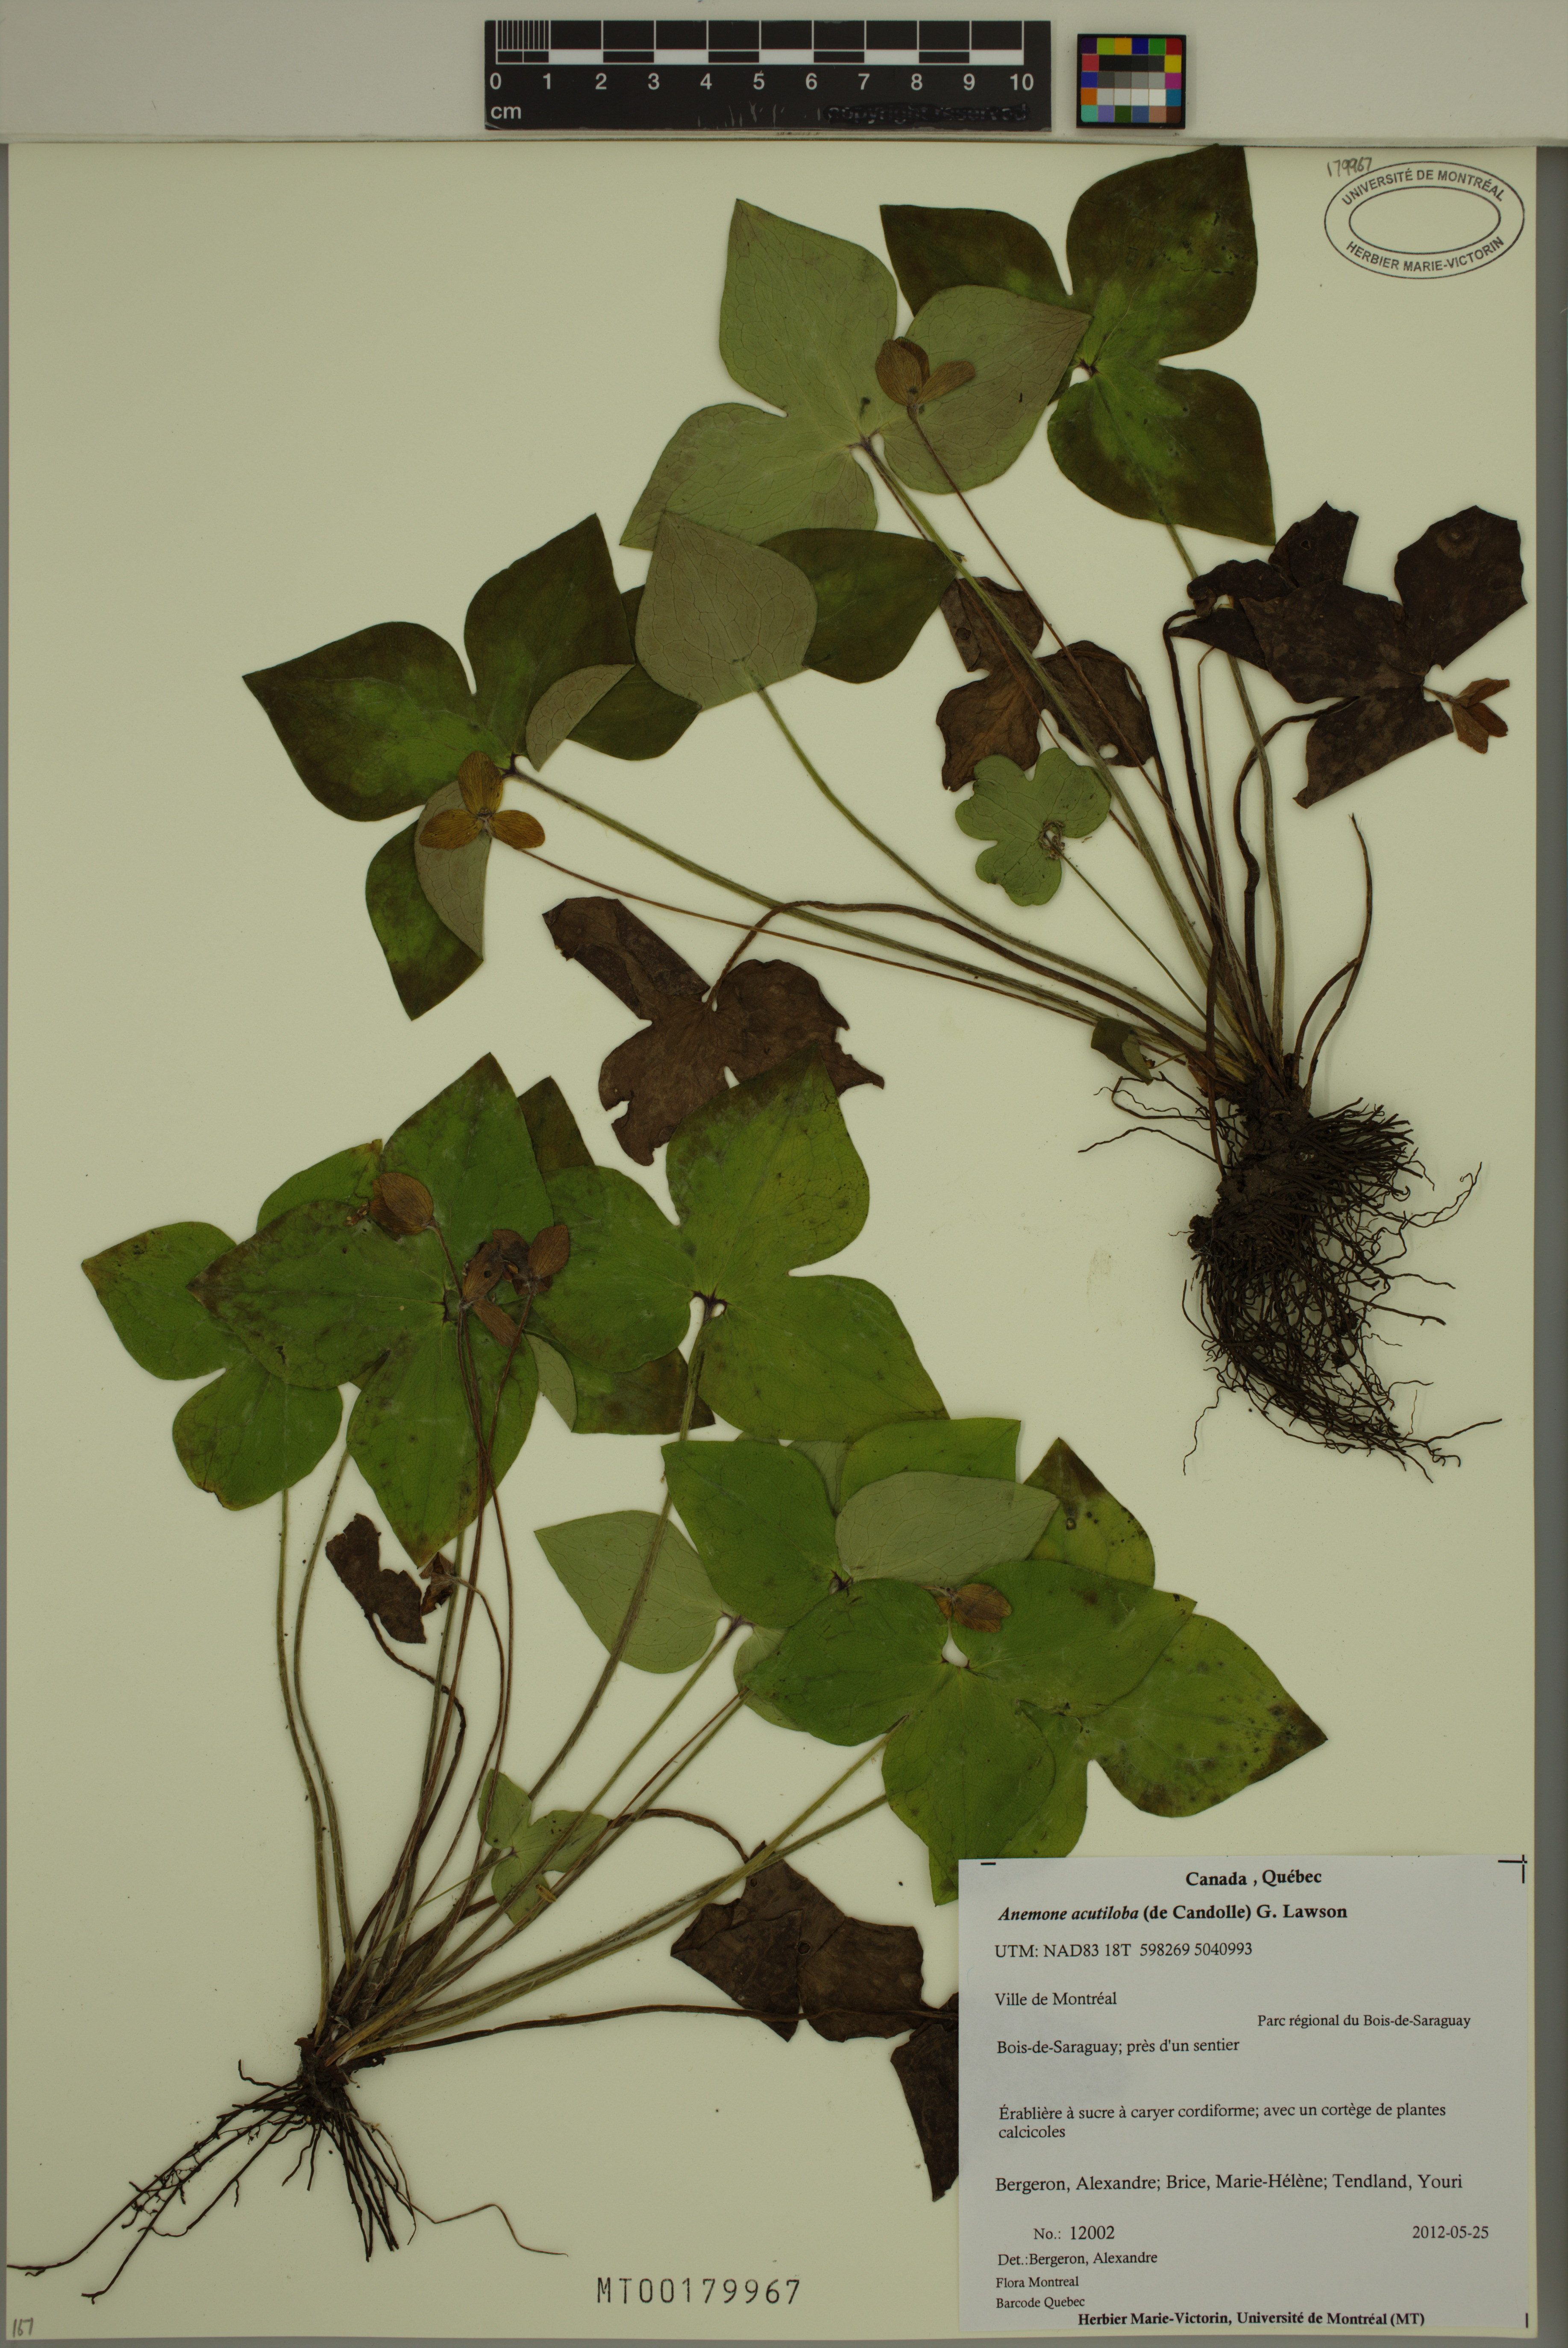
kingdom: Plantae
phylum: Tracheophyta
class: Magnoliopsida
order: Ranunculales
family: Ranunculaceae
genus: Hepatica
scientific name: Hepatica acutiloba
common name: Sharp-lobed hepatica
